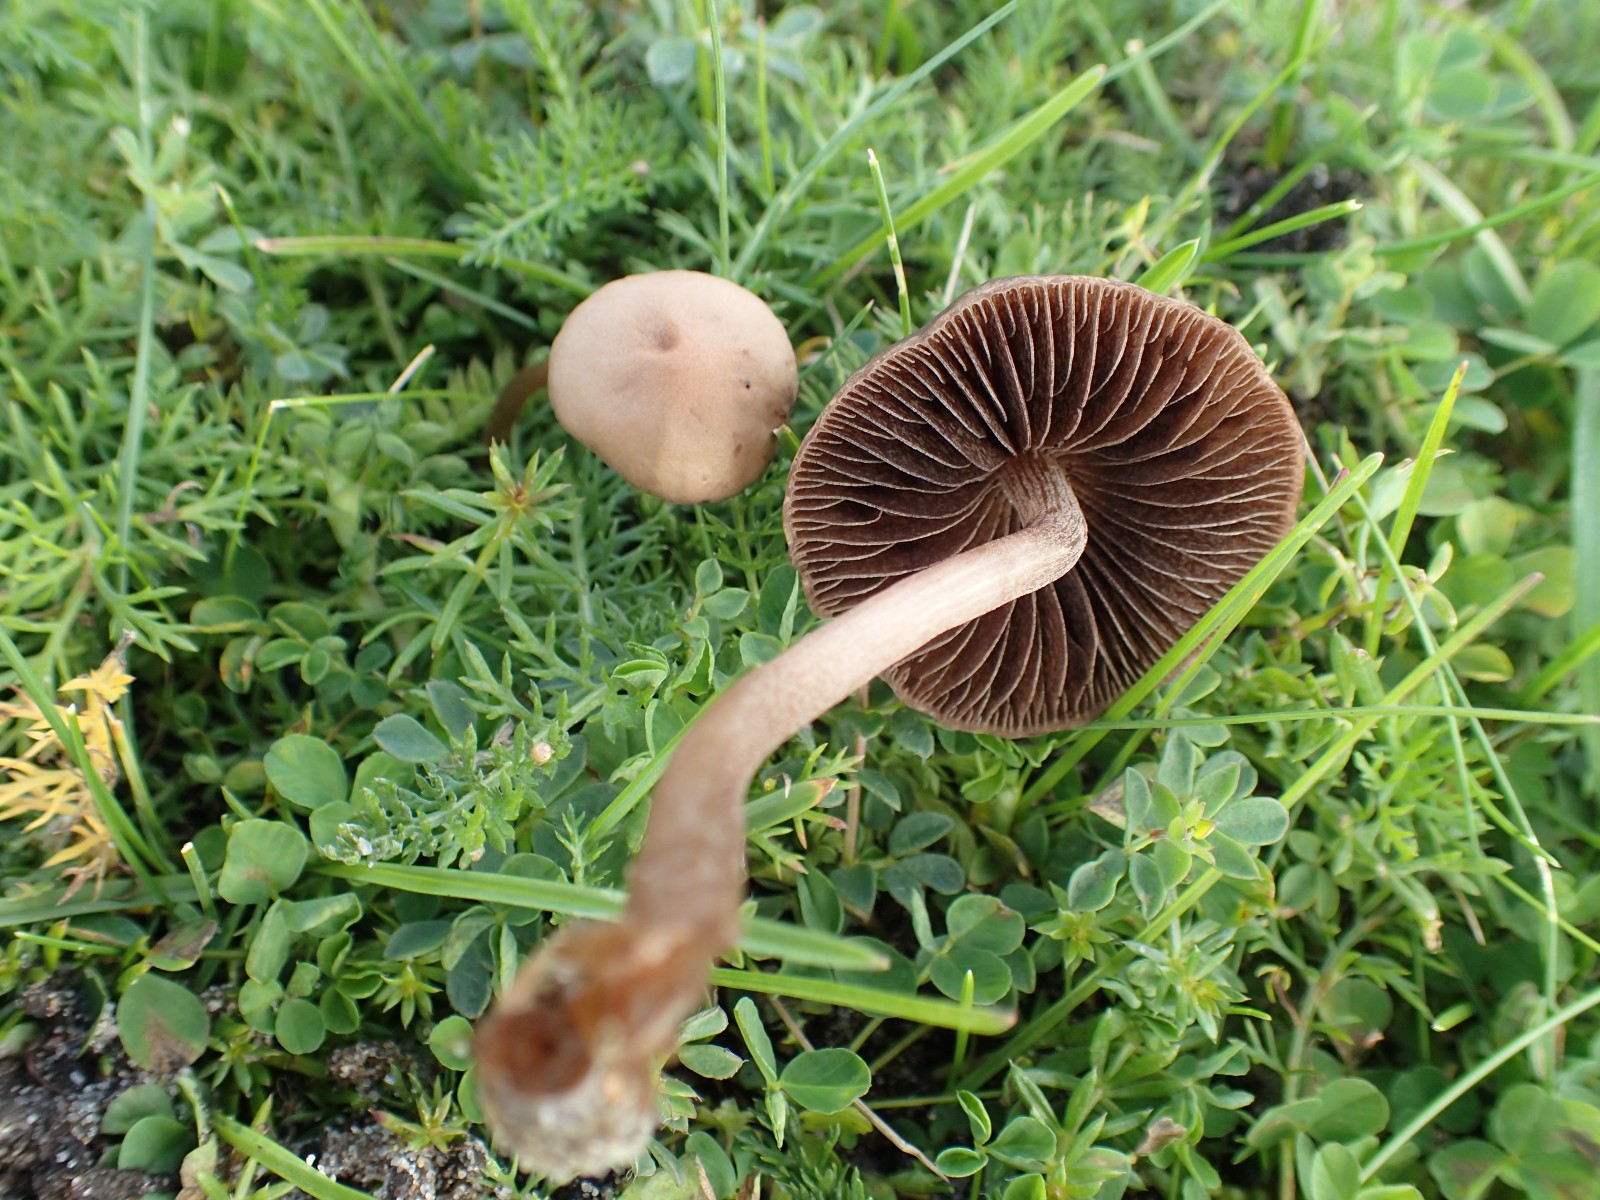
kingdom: Fungi
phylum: Basidiomycota
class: Agaricomycetes
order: Agaricales
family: Bolbitiaceae
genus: Panaeolina
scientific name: Panaeolina foenisecii
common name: høslætsvamp
